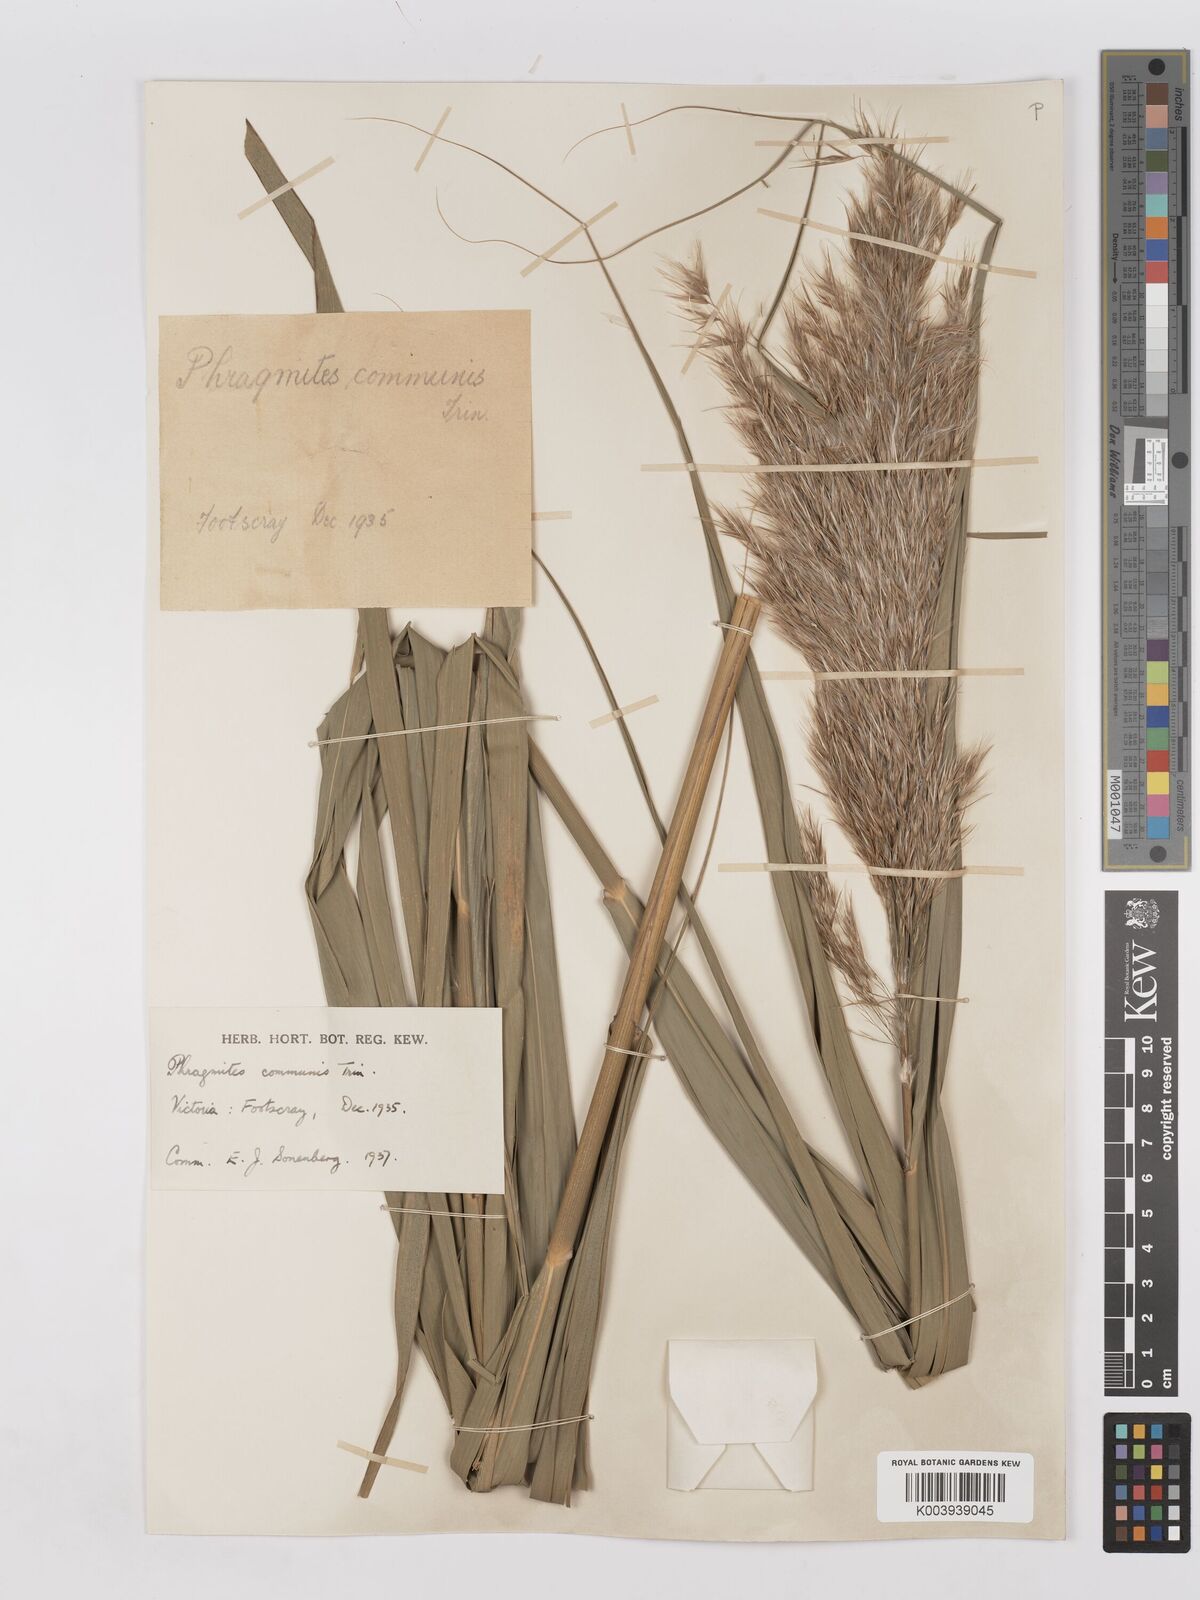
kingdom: Plantae
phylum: Tracheophyta
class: Liliopsida
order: Poales
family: Poaceae
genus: Phragmites
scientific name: Phragmites australis
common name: Common reed
